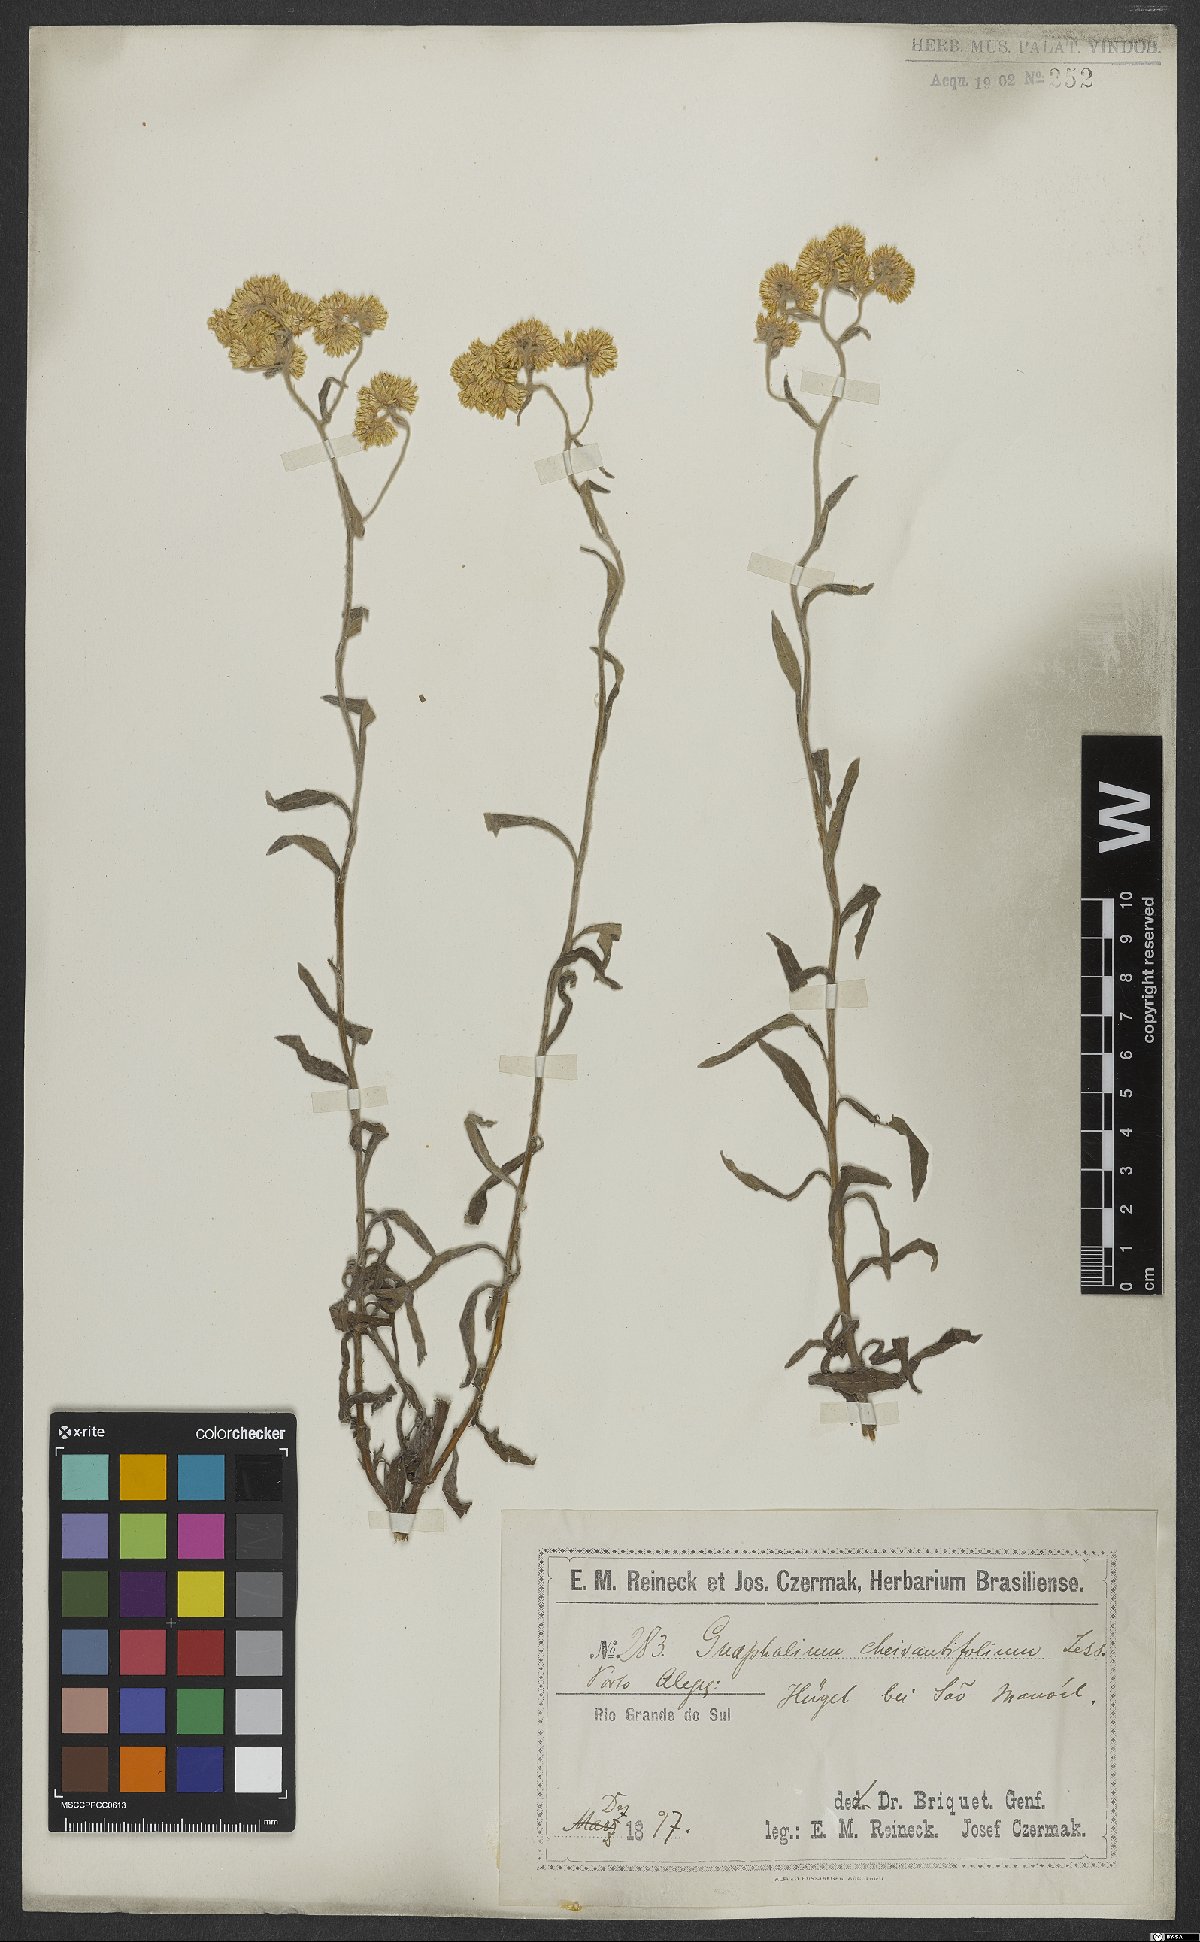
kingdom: Plantae
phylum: Tracheophyta
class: Magnoliopsida
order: Asterales
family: Asteraceae
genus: Pseudognaphalium
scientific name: Pseudognaphalium cheiranthifolium
